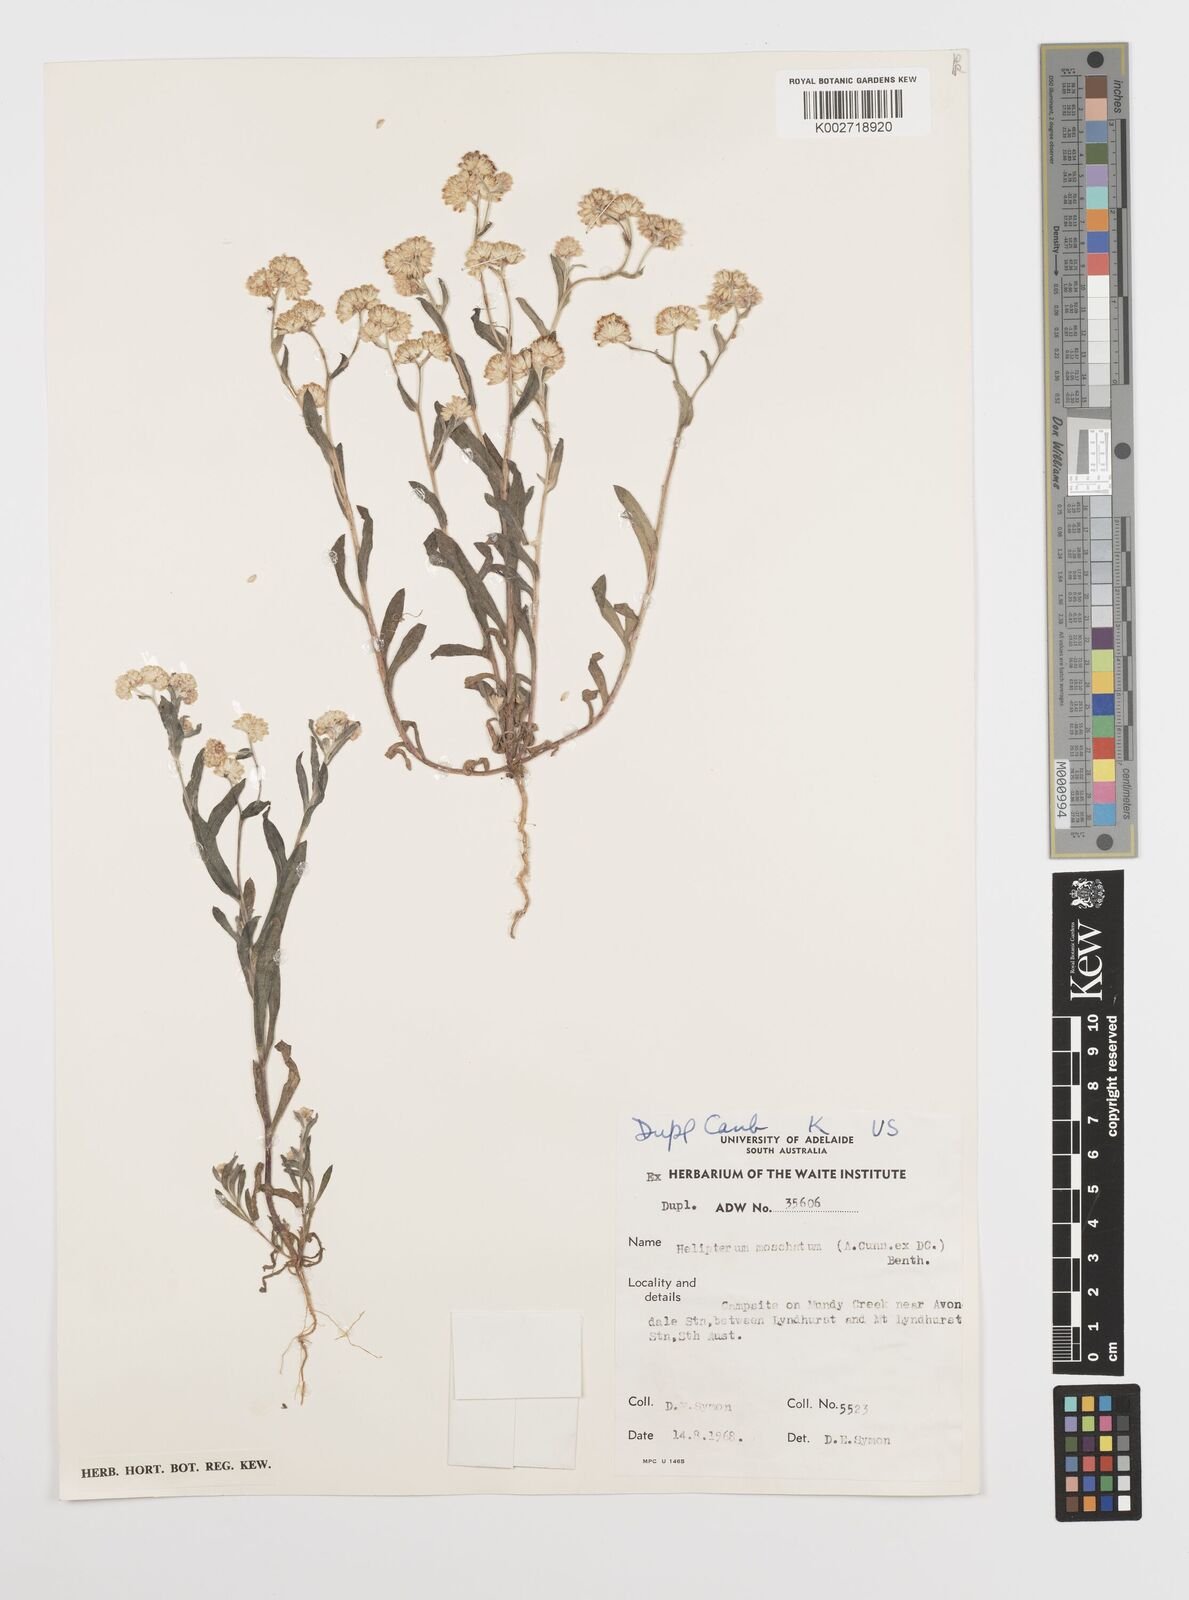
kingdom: Plantae
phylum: Tracheophyta
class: Magnoliopsida
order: Asterales
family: Asteraceae
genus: Rhodanthe
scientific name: Rhodanthe moschata
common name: Musk sunray
